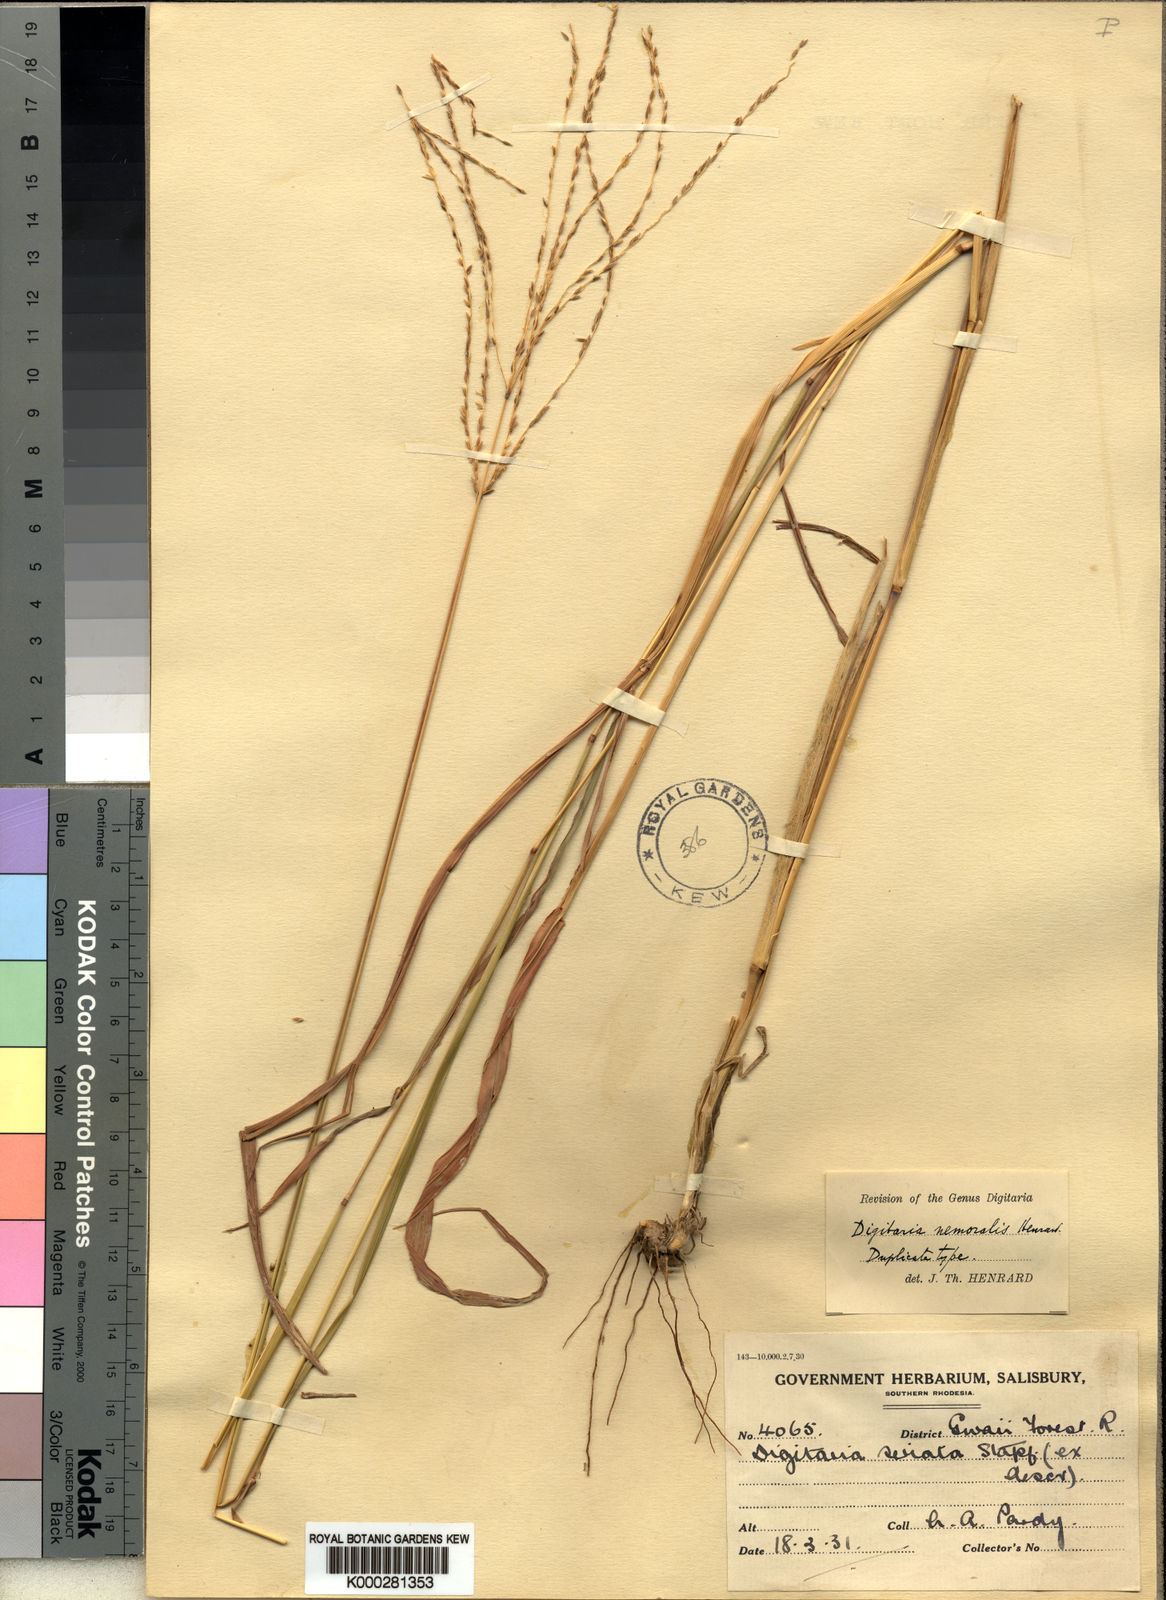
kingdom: Plantae
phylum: Tracheophyta
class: Liliopsida
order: Poales
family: Poaceae
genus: Digitaria
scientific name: Digitaria eriantha
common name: Digitgrass
